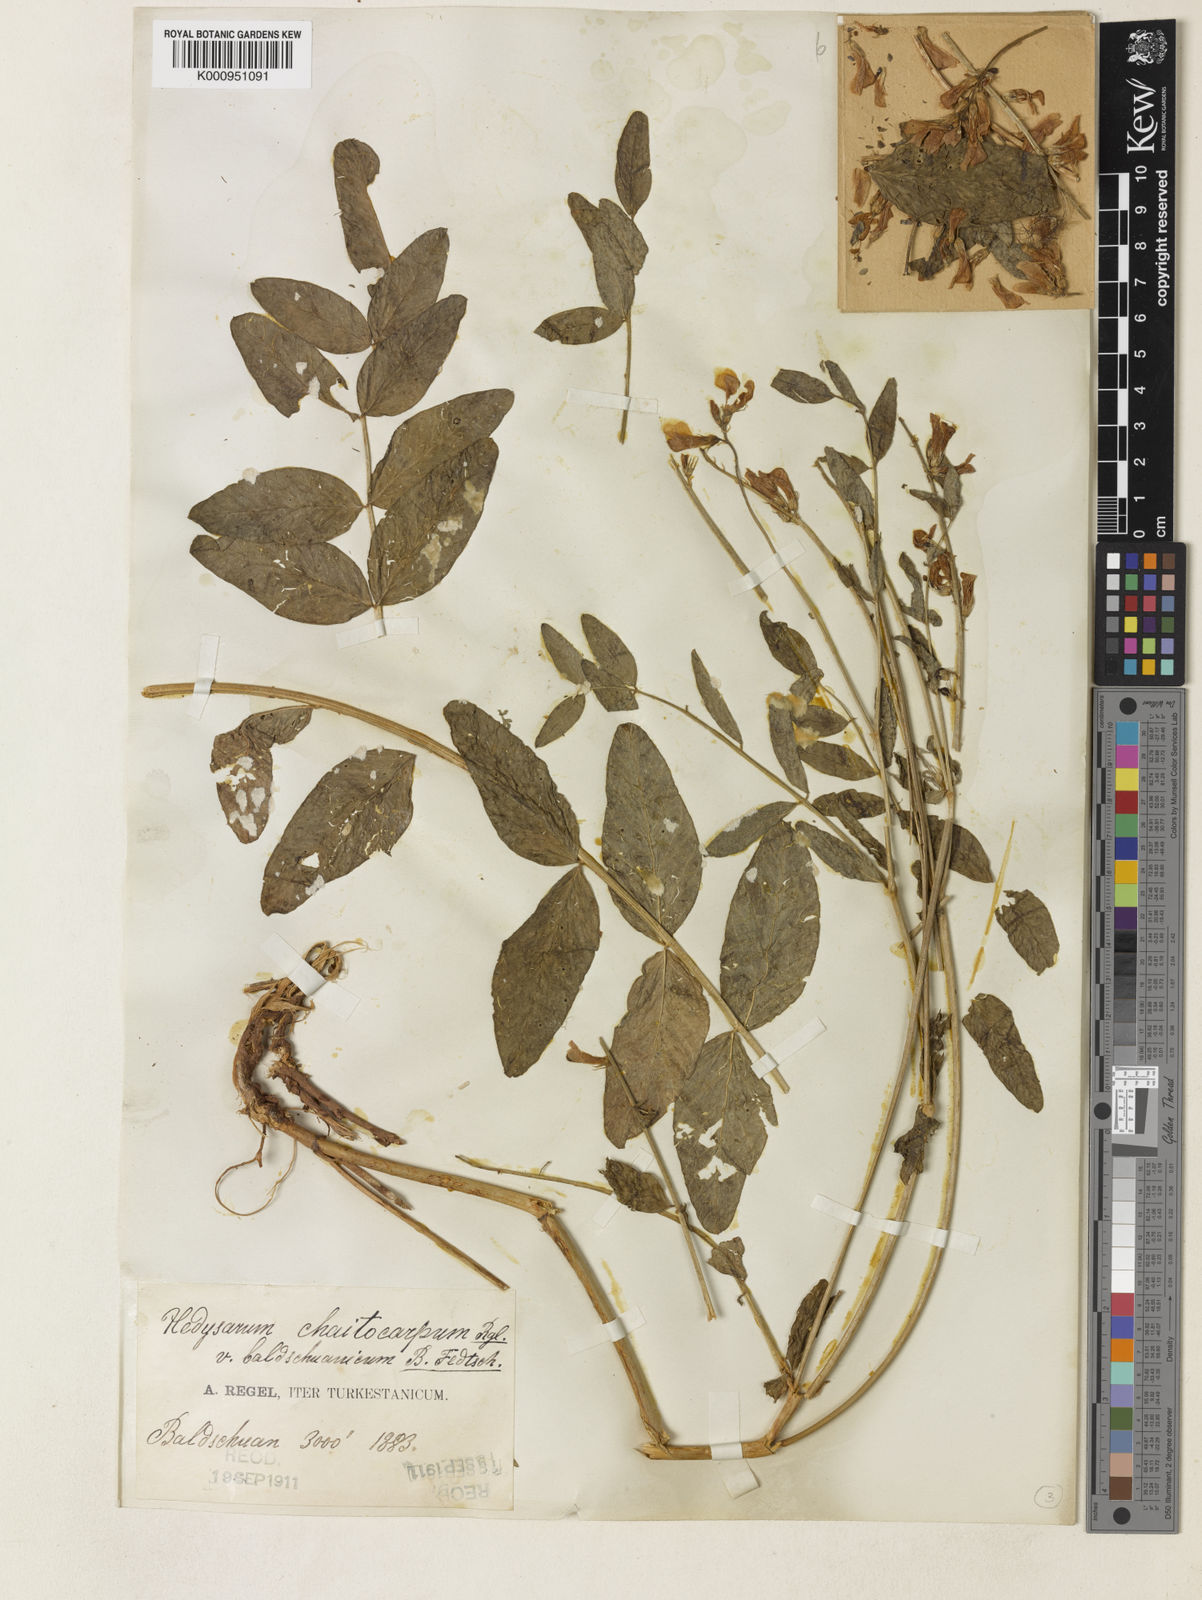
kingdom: Plantae
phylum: Tracheophyta
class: Magnoliopsida
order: Fabales
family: Fabaceae
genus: Hedysarum
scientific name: Hedysarum chaitocarpum
